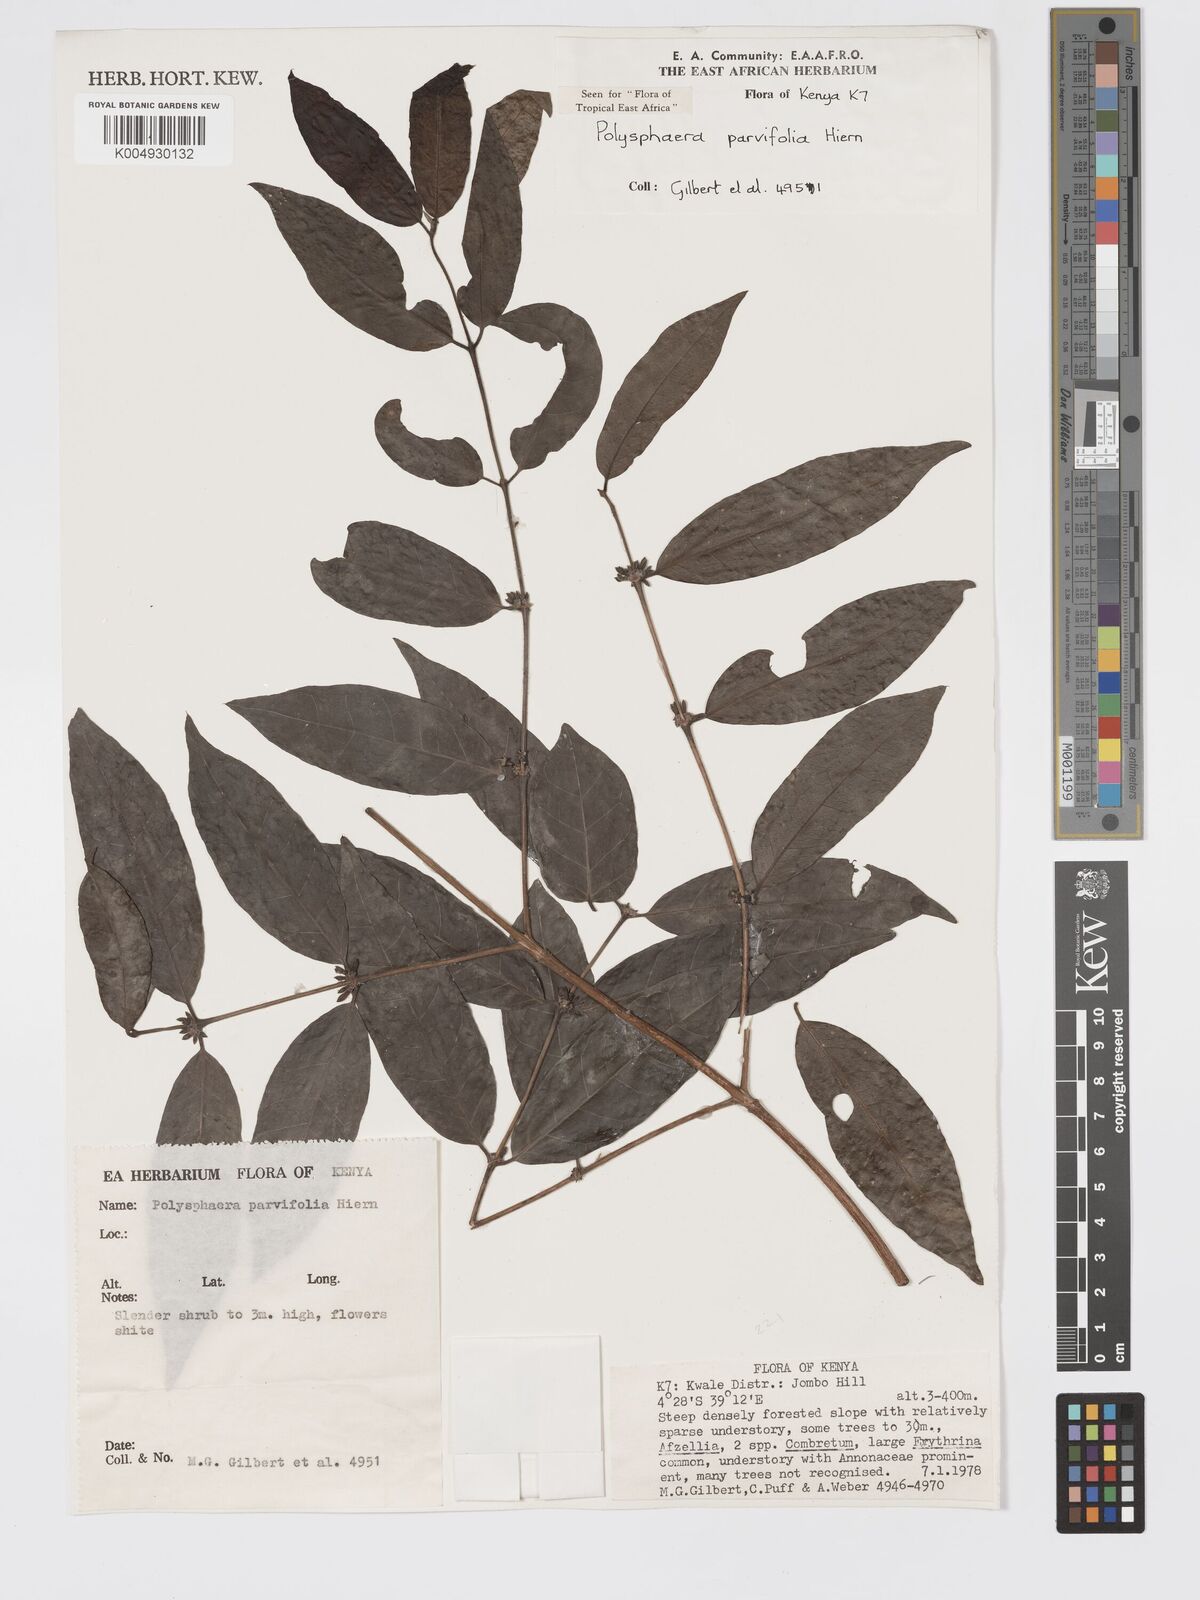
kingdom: Plantae
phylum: Tracheophyta
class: Magnoliopsida
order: Gentianales
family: Rubiaceae
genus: Polysphaeria
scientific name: Polysphaeria parvifolia
